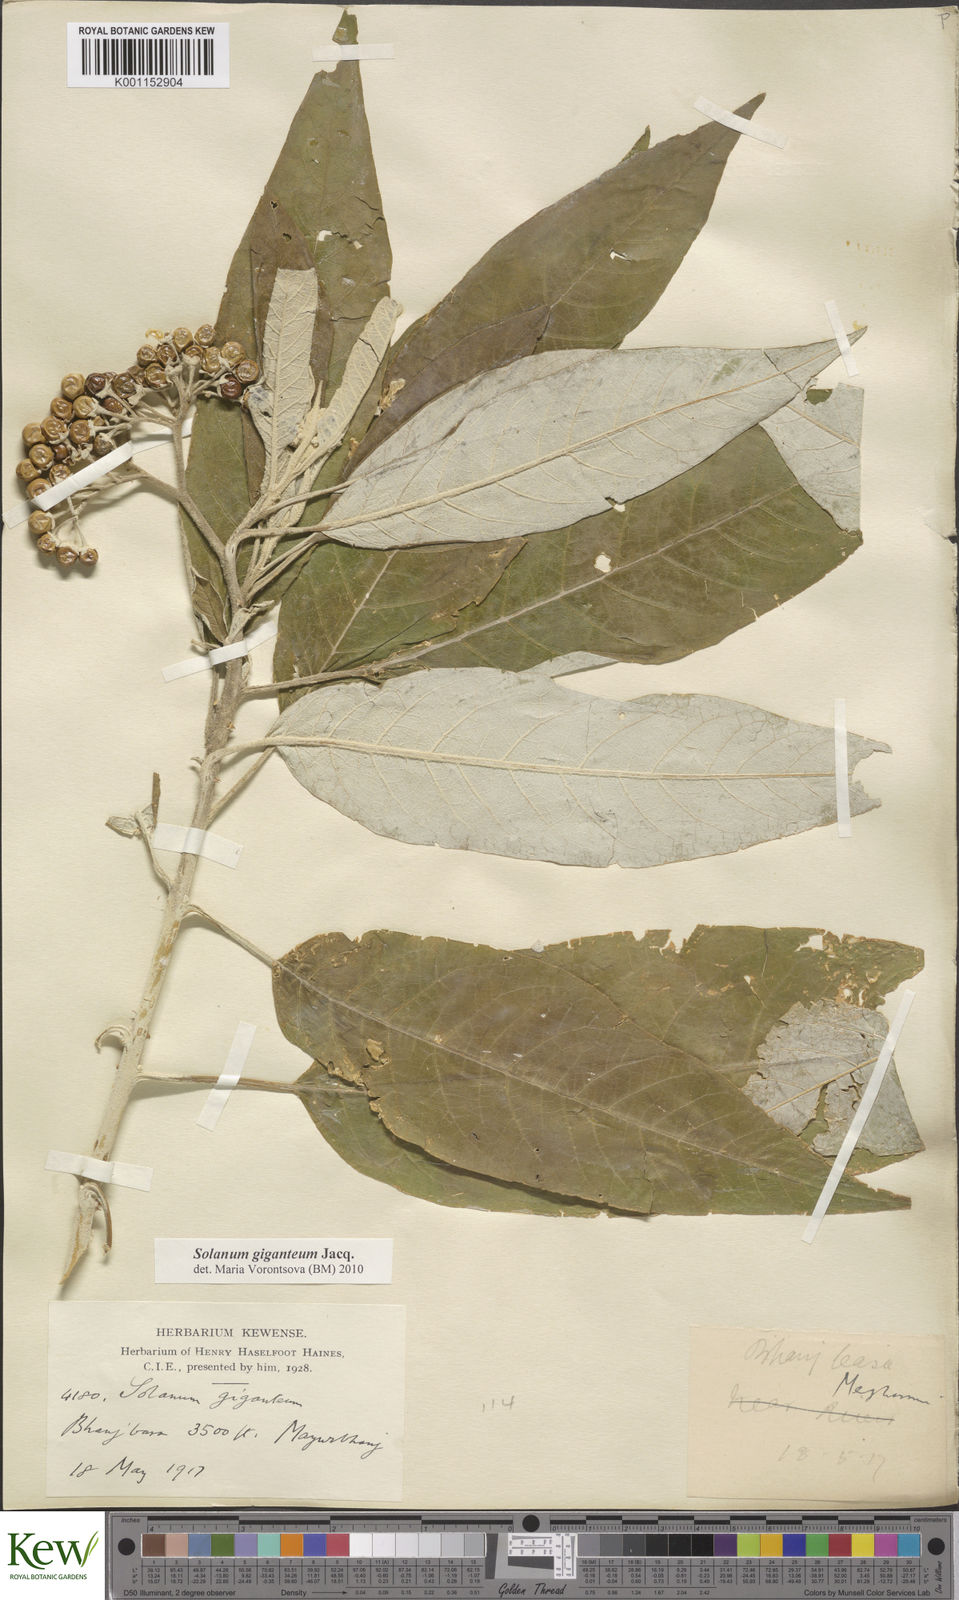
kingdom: Plantae
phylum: Tracheophyta
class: Magnoliopsida
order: Solanales
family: Solanaceae
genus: Solanum
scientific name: Solanum giganteum
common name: Healing-leaf-tree
